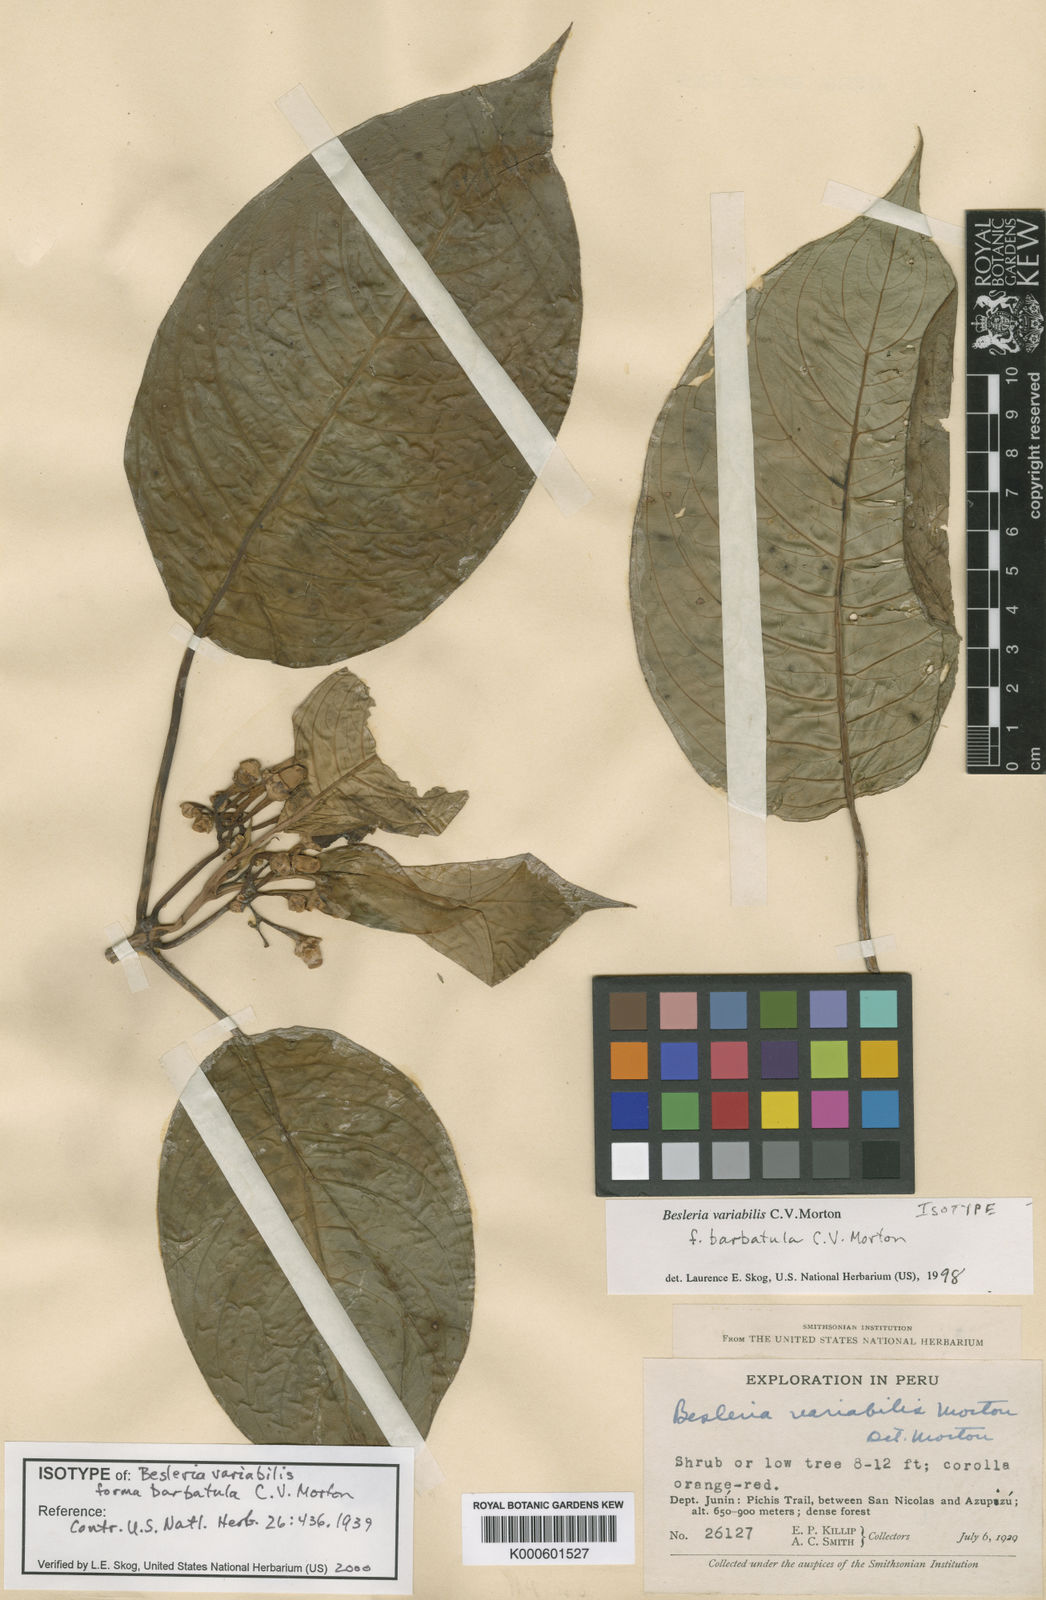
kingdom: Plantae
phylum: Tracheophyta
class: Magnoliopsida
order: Lamiales
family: Gesneriaceae
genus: Besleria
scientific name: Besleria variabilis
